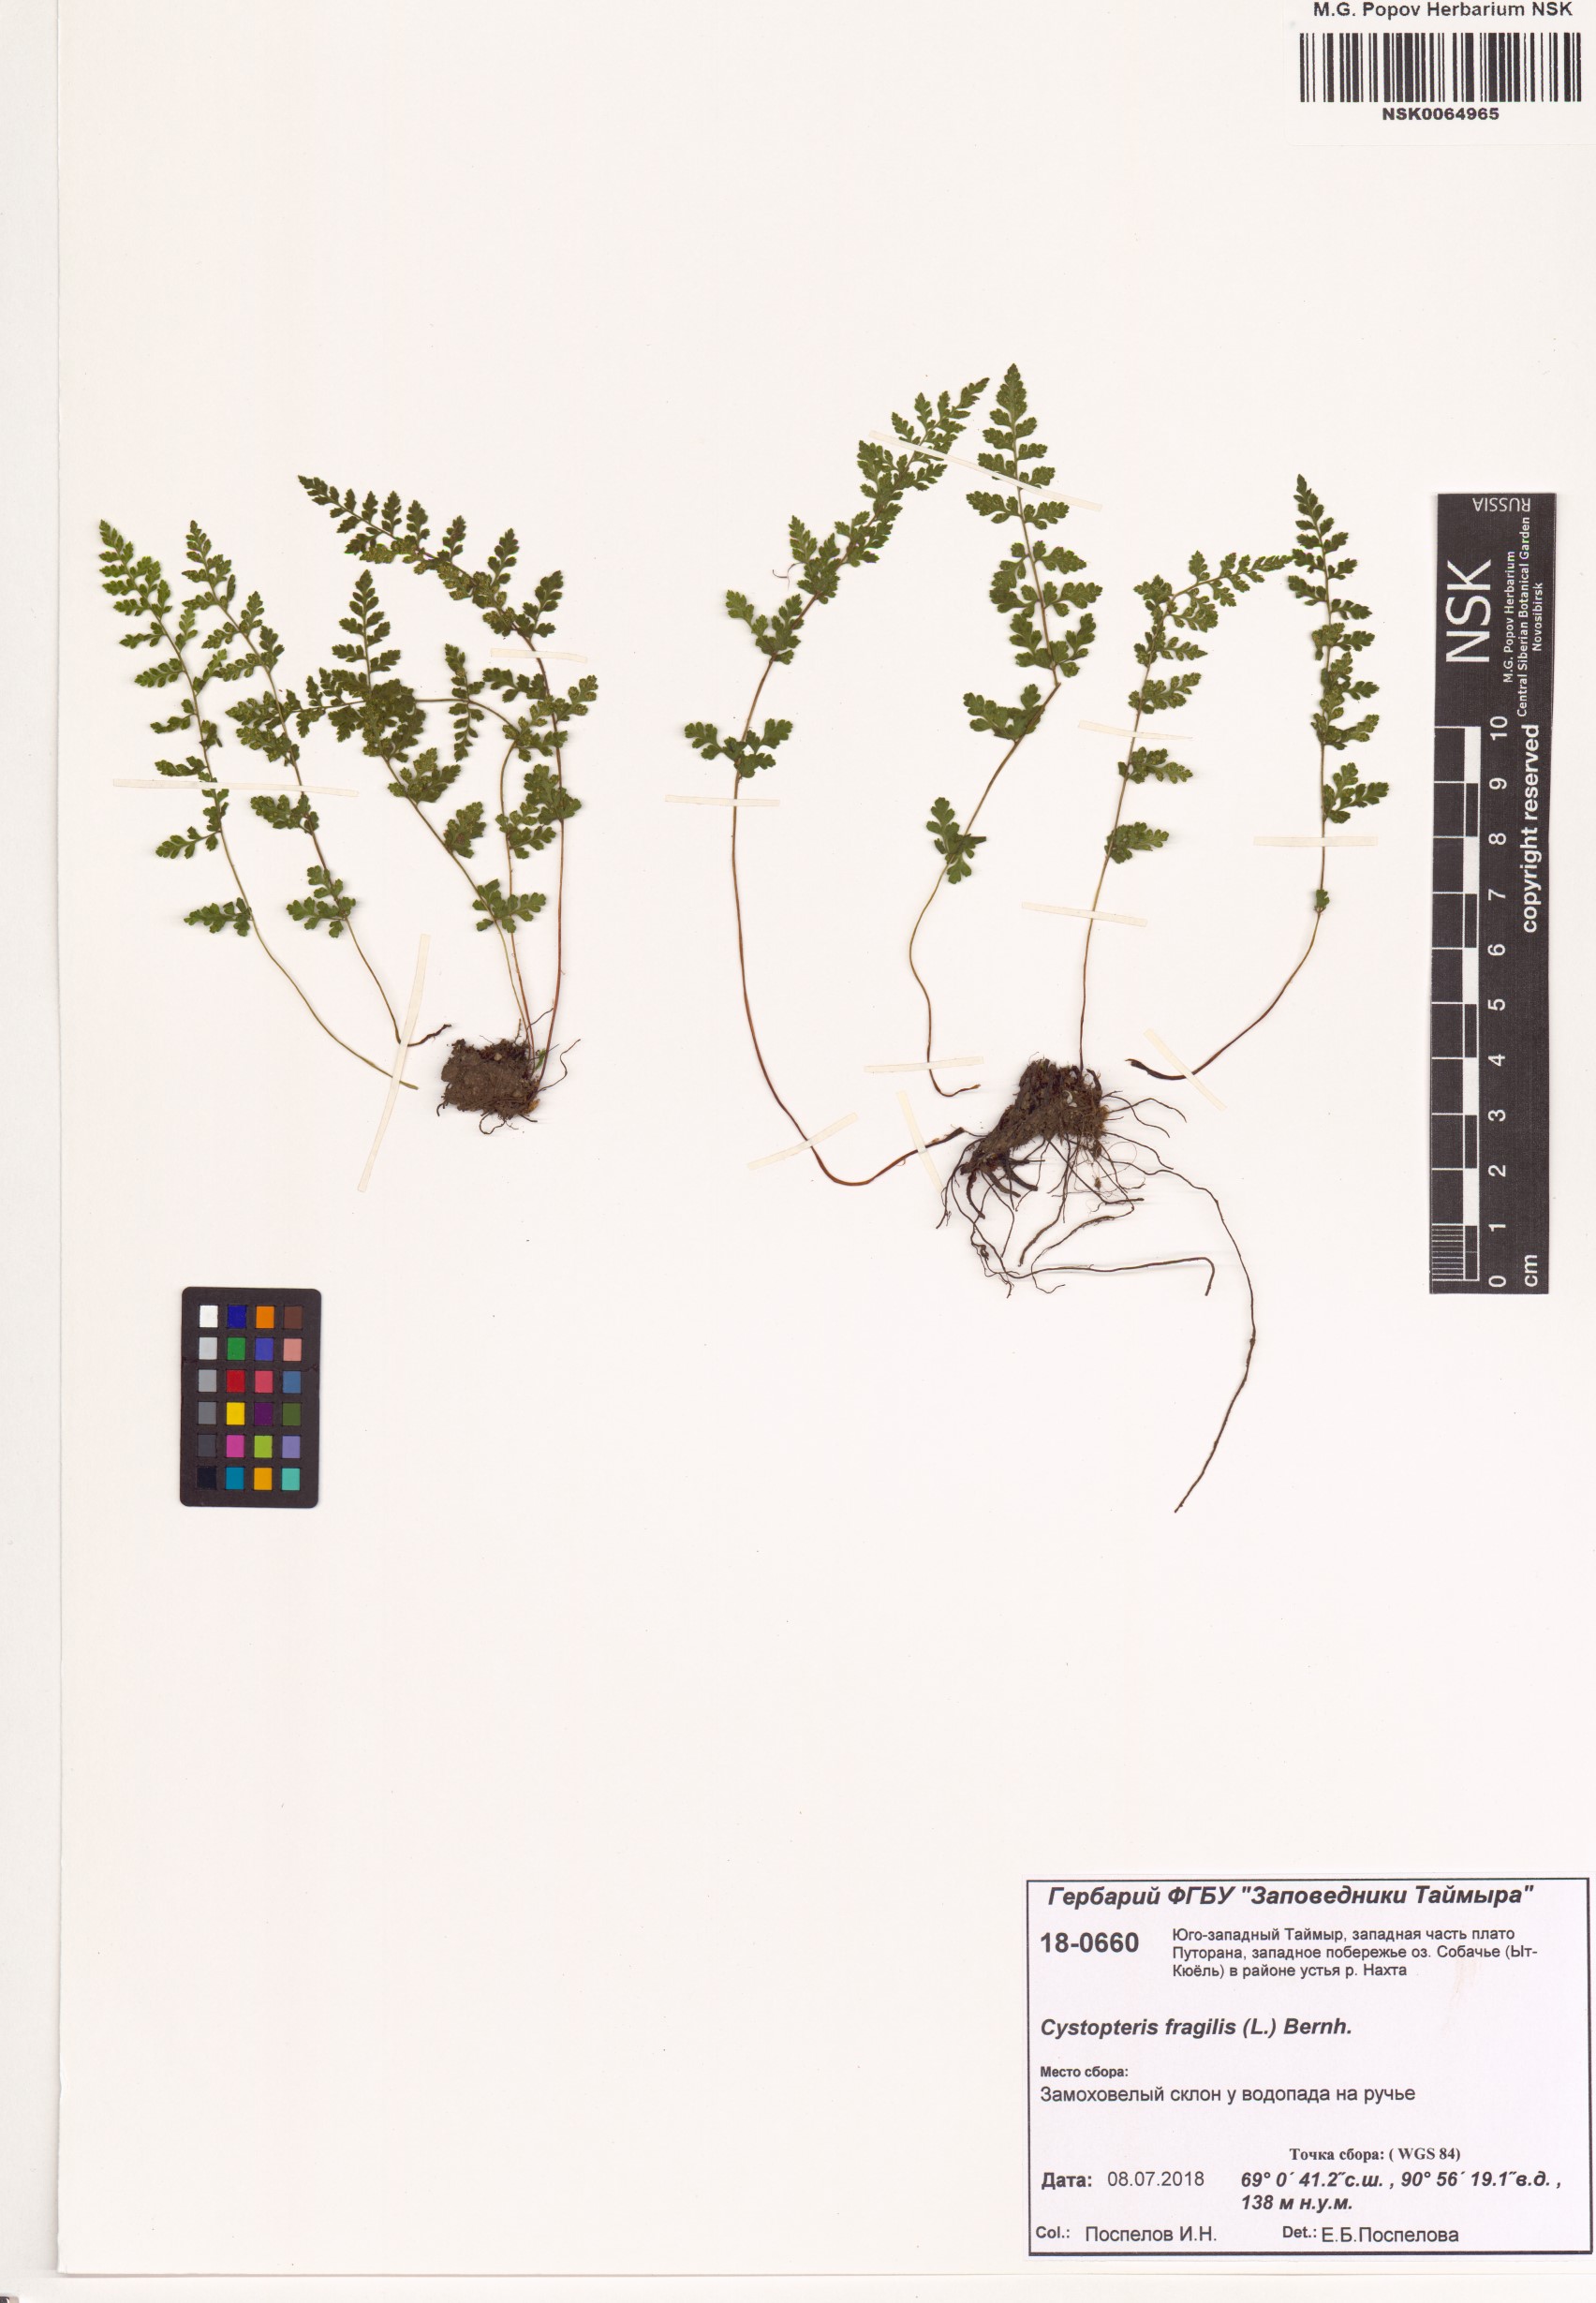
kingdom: Plantae
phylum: Tracheophyta
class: Polypodiopsida
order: Polypodiales
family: Cystopteridaceae
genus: Cystopteris
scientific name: Cystopteris fragilis
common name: Brittle bladder fern
